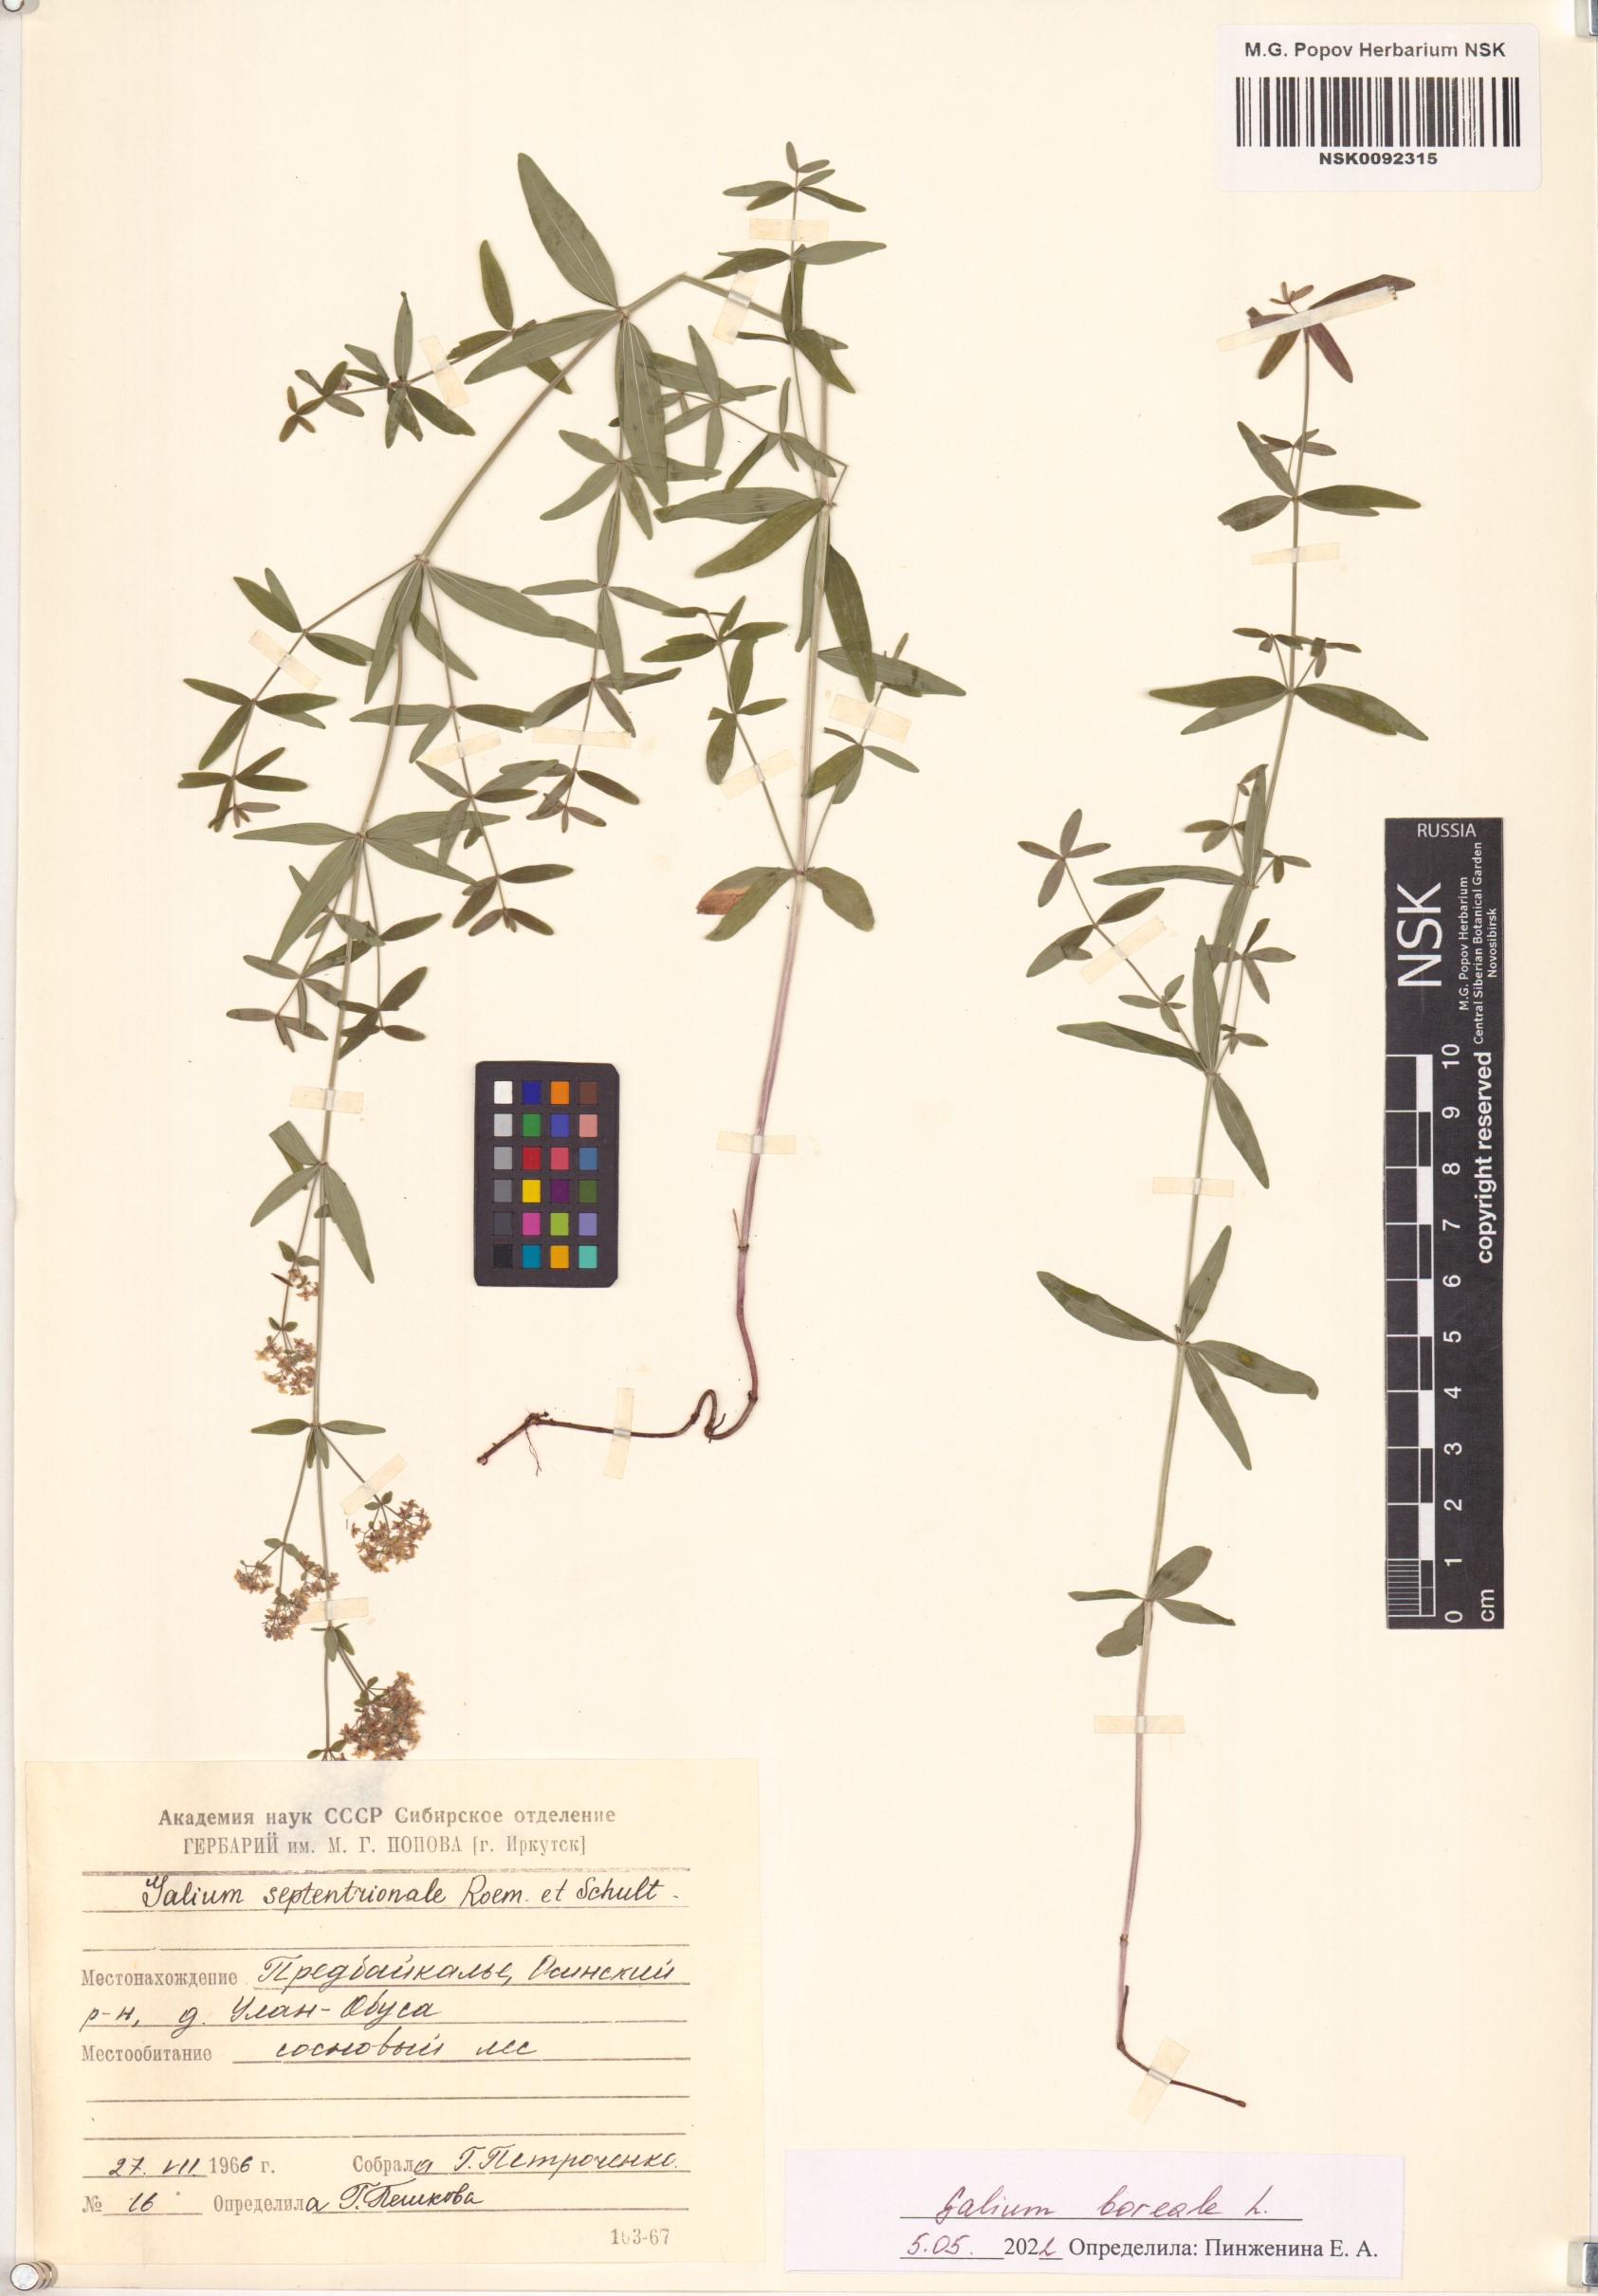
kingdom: Plantae
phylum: Tracheophyta
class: Magnoliopsida
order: Gentianales
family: Rubiaceae
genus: Galium
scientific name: Galium boreale
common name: Northern bedstraw
